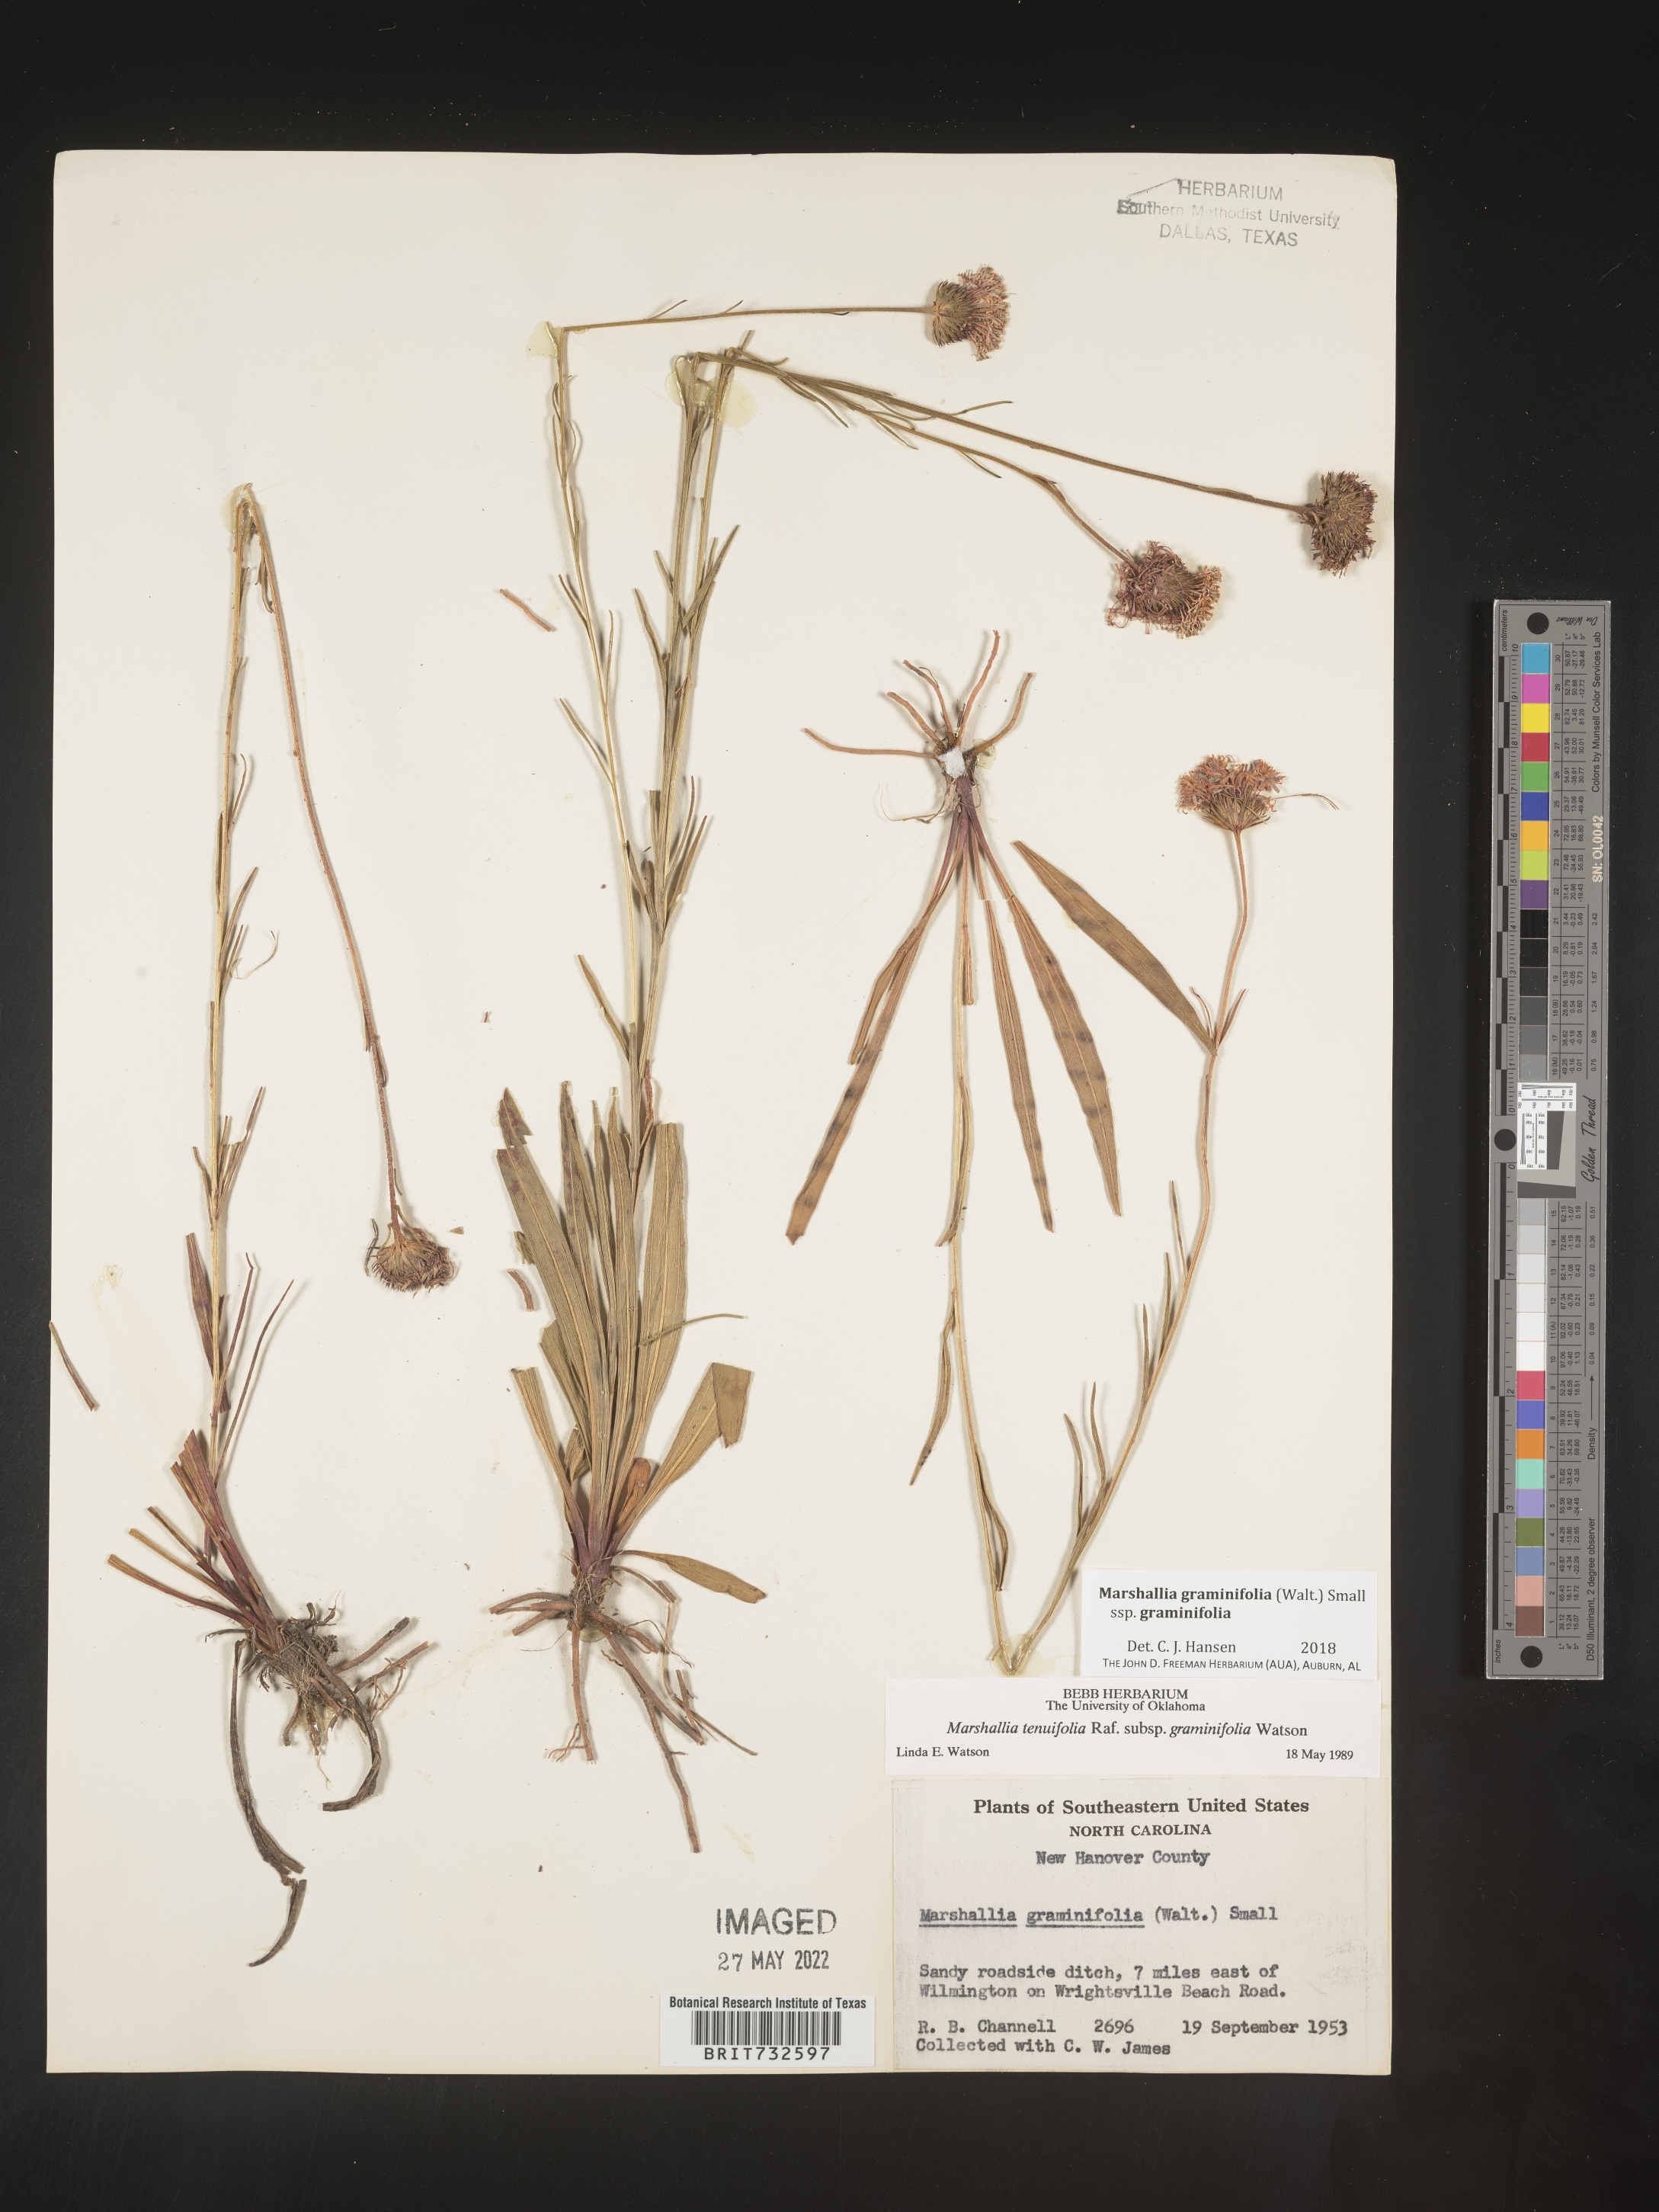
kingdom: Plantae
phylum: Tracheophyta
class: Magnoliopsida
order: Asterales
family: Asteraceae
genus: Marshallia
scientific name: Marshallia graminifolia
